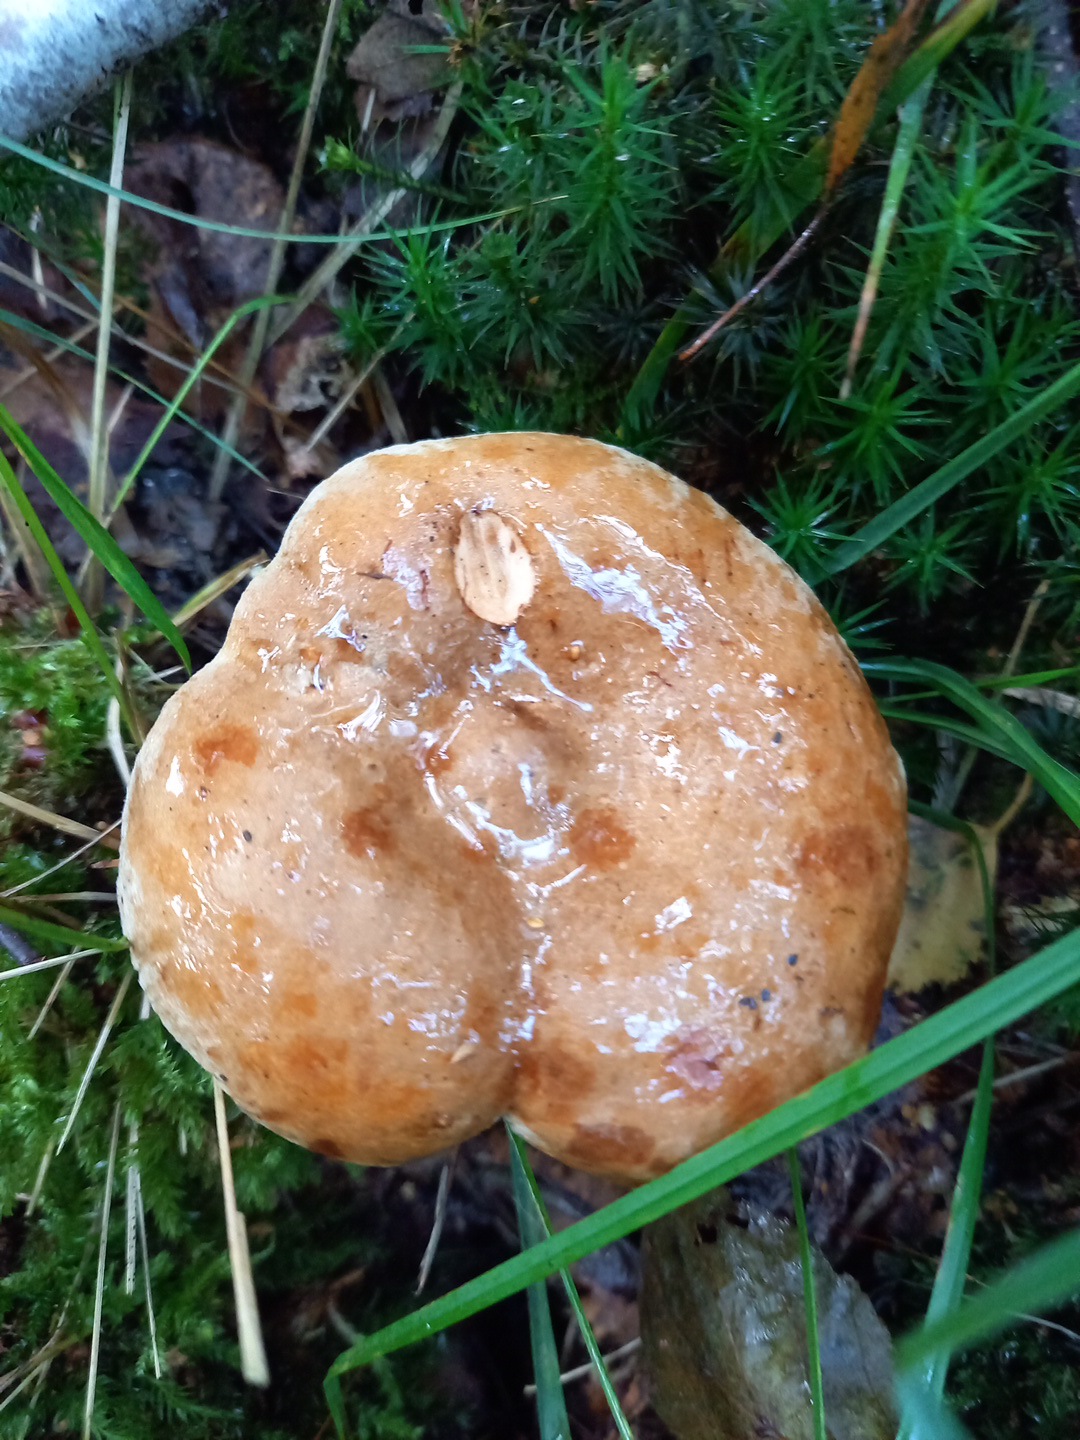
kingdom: Fungi
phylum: Basidiomycota
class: Agaricomycetes
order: Boletales
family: Paxillaceae
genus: Paxillus
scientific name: Paxillus involutus
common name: almindelig netbladhat
